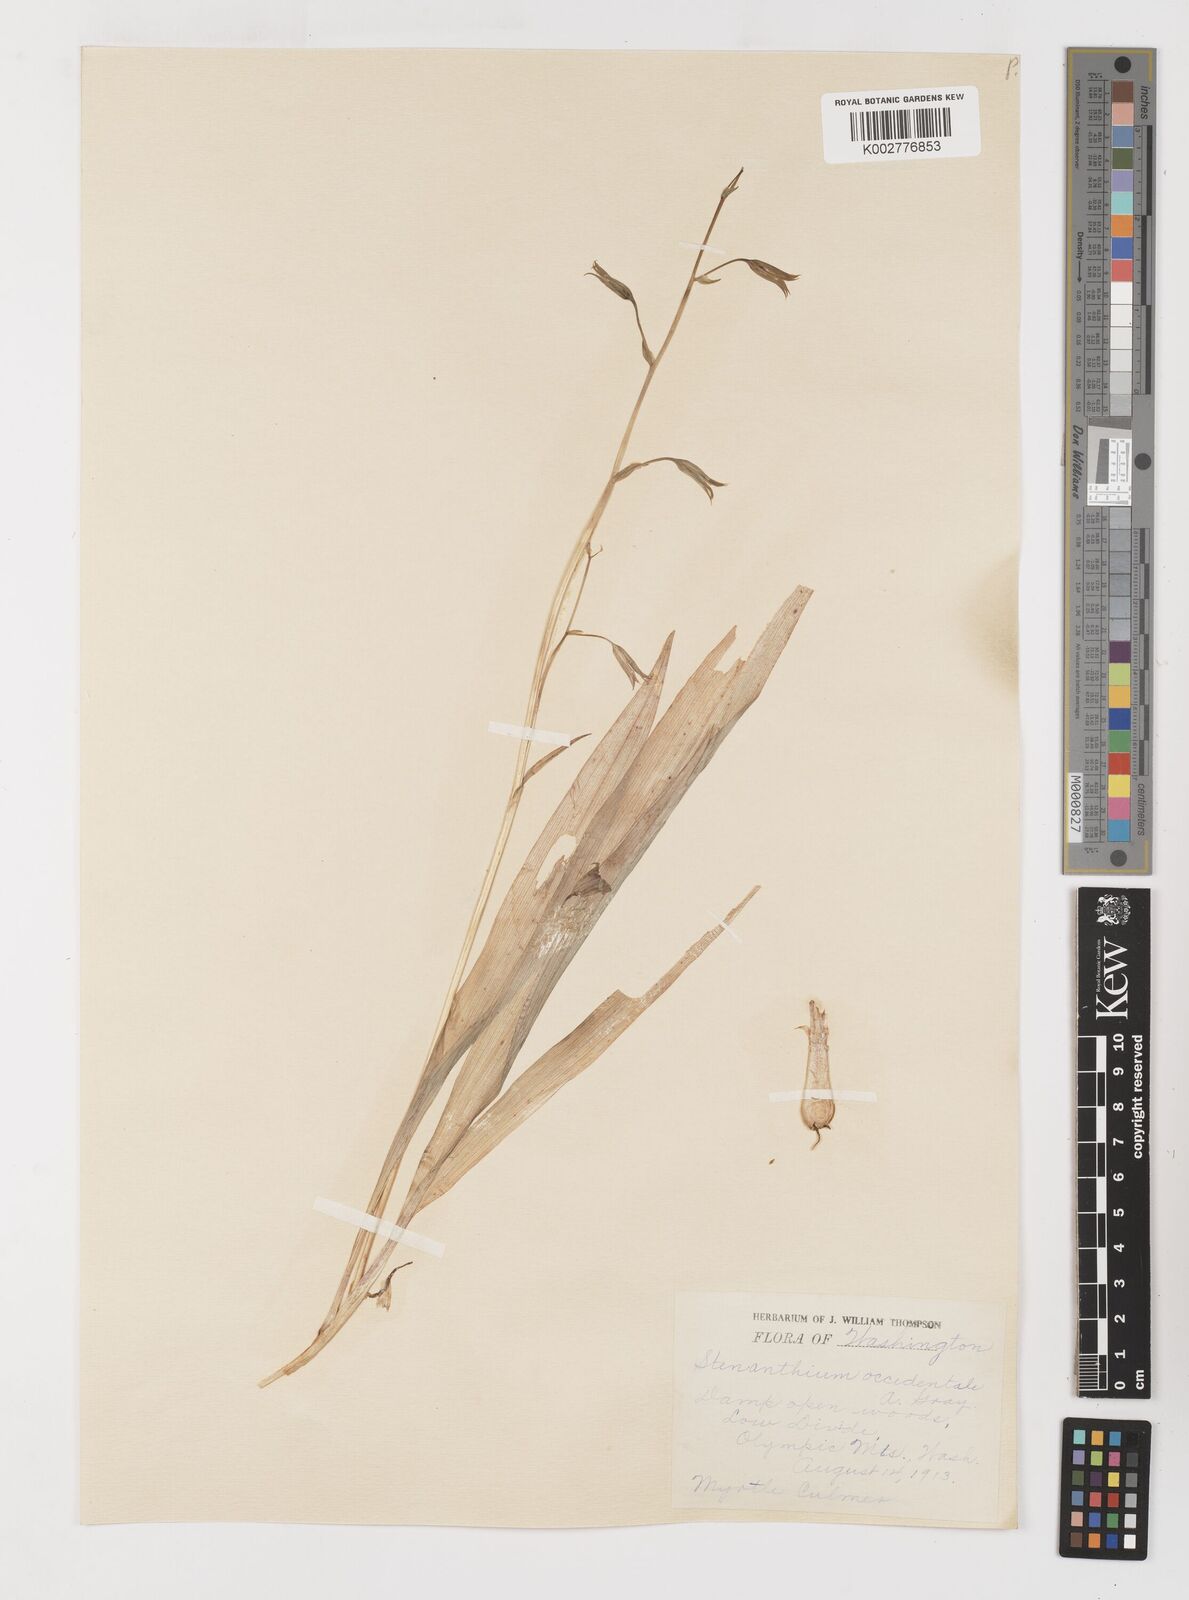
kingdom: Plantae
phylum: Tracheophyta
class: Liliopsida
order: Liliales
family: Melanthiaceae
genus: Anticlea
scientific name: Anticlea occidentalis
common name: Bronze-bells
